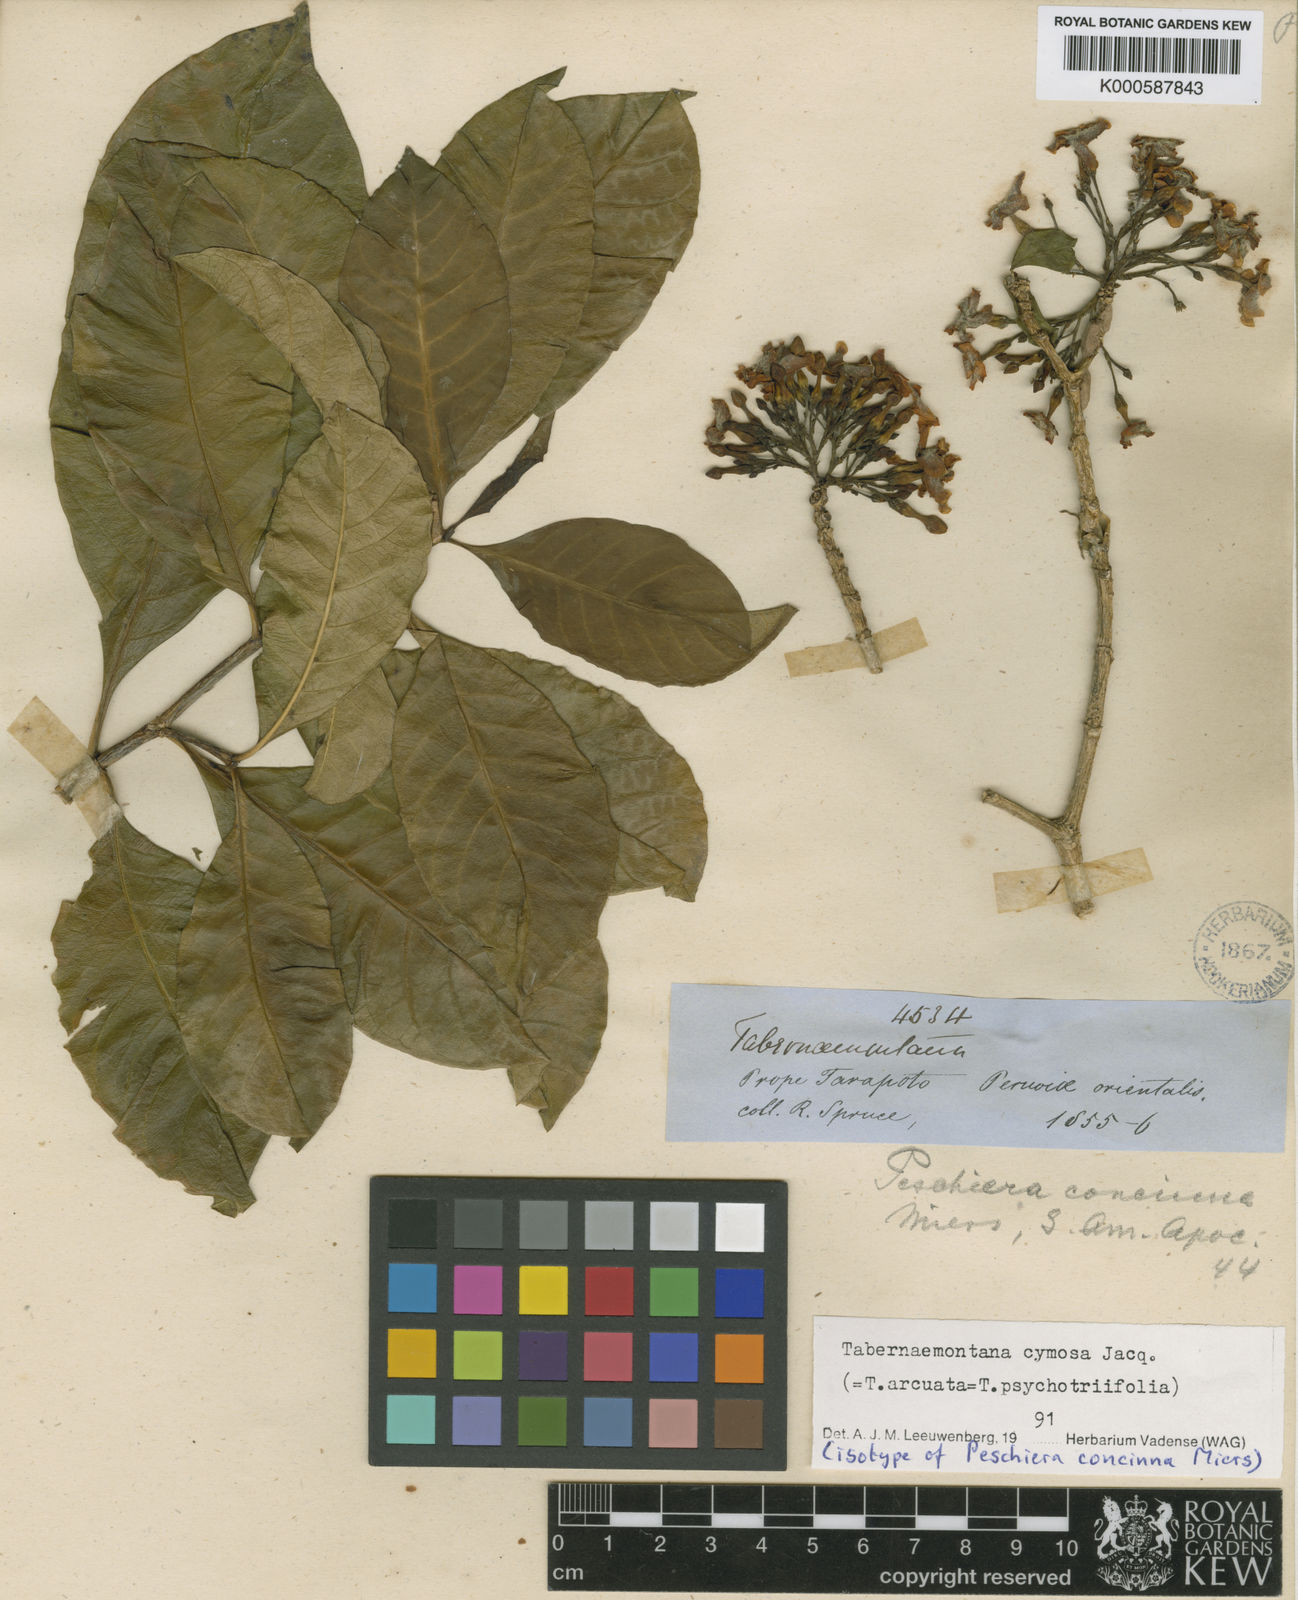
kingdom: Plantae
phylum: Tracheophyta
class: Magnoliopsida
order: Gentianales
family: Apocynaceae
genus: Tabernaemontana
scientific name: Tabernaemontana cymosa
